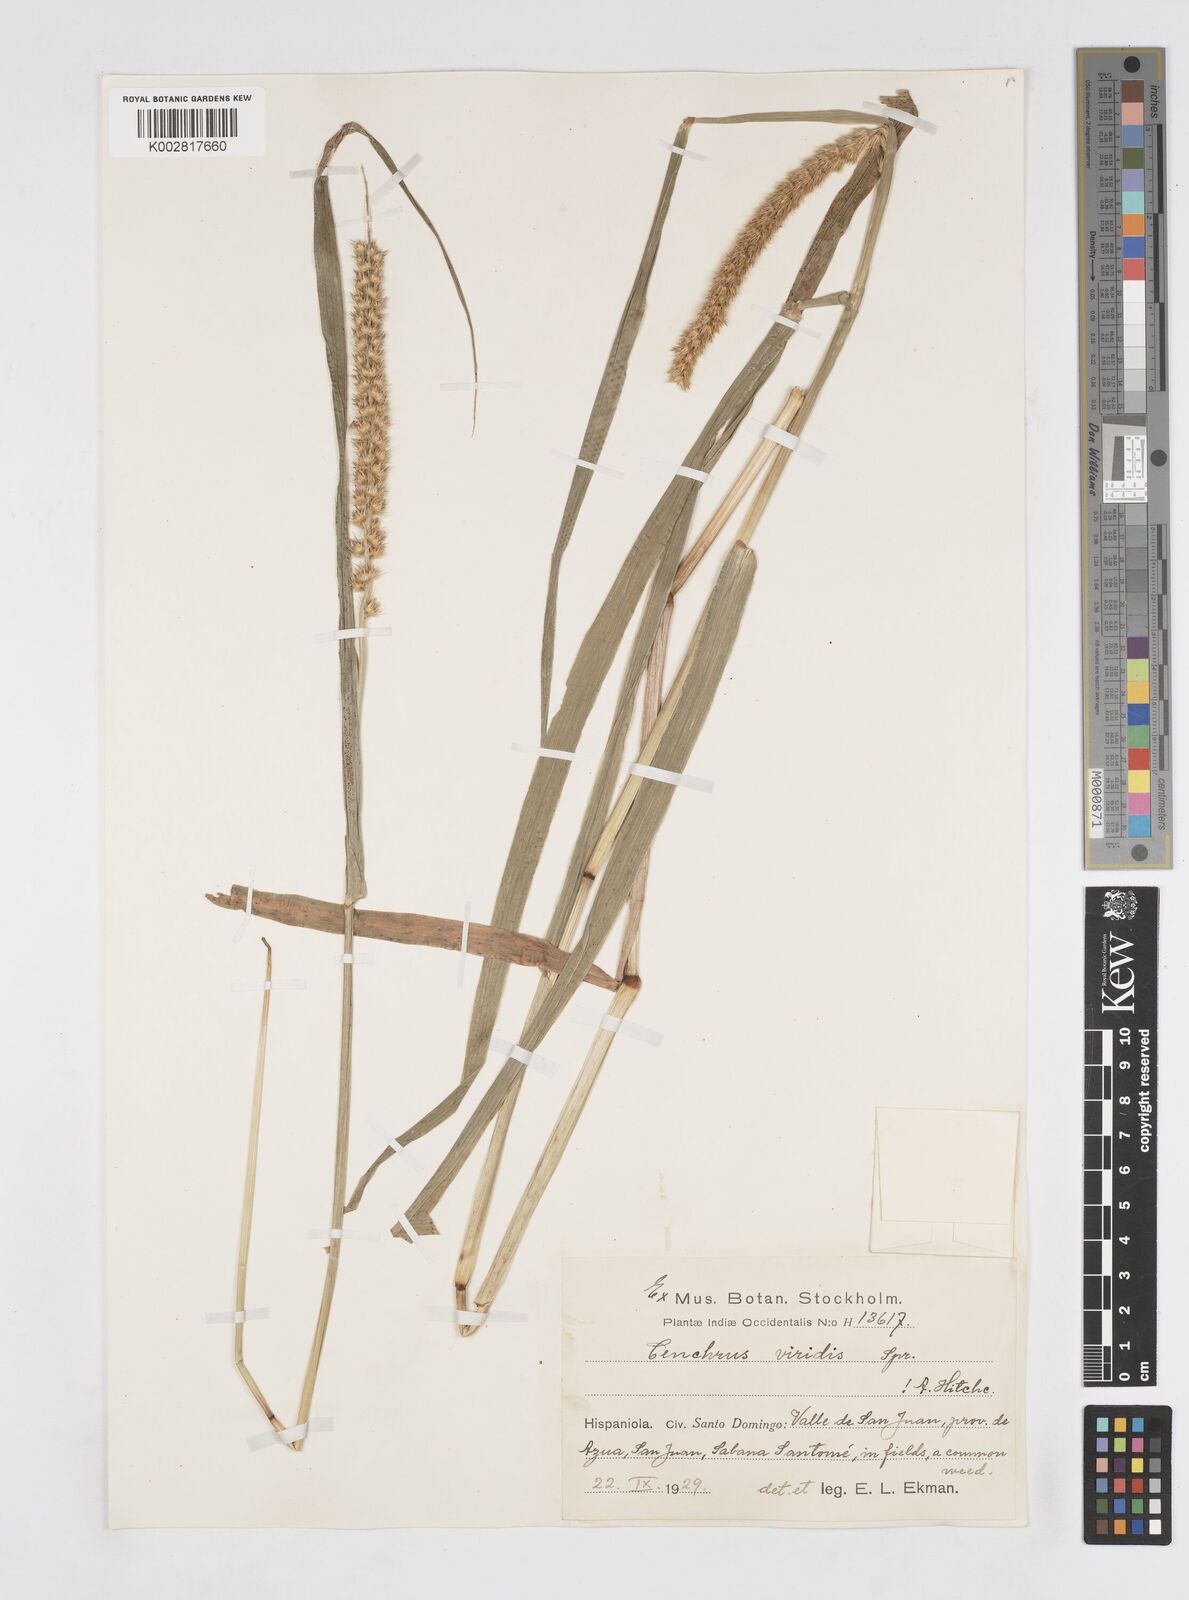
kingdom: Plantae
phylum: Tracheophyta
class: Liliopsida
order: Poales
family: Poaceae
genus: Cenchrus
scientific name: Cenchrus brownii
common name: Slim-bristle sandbur
